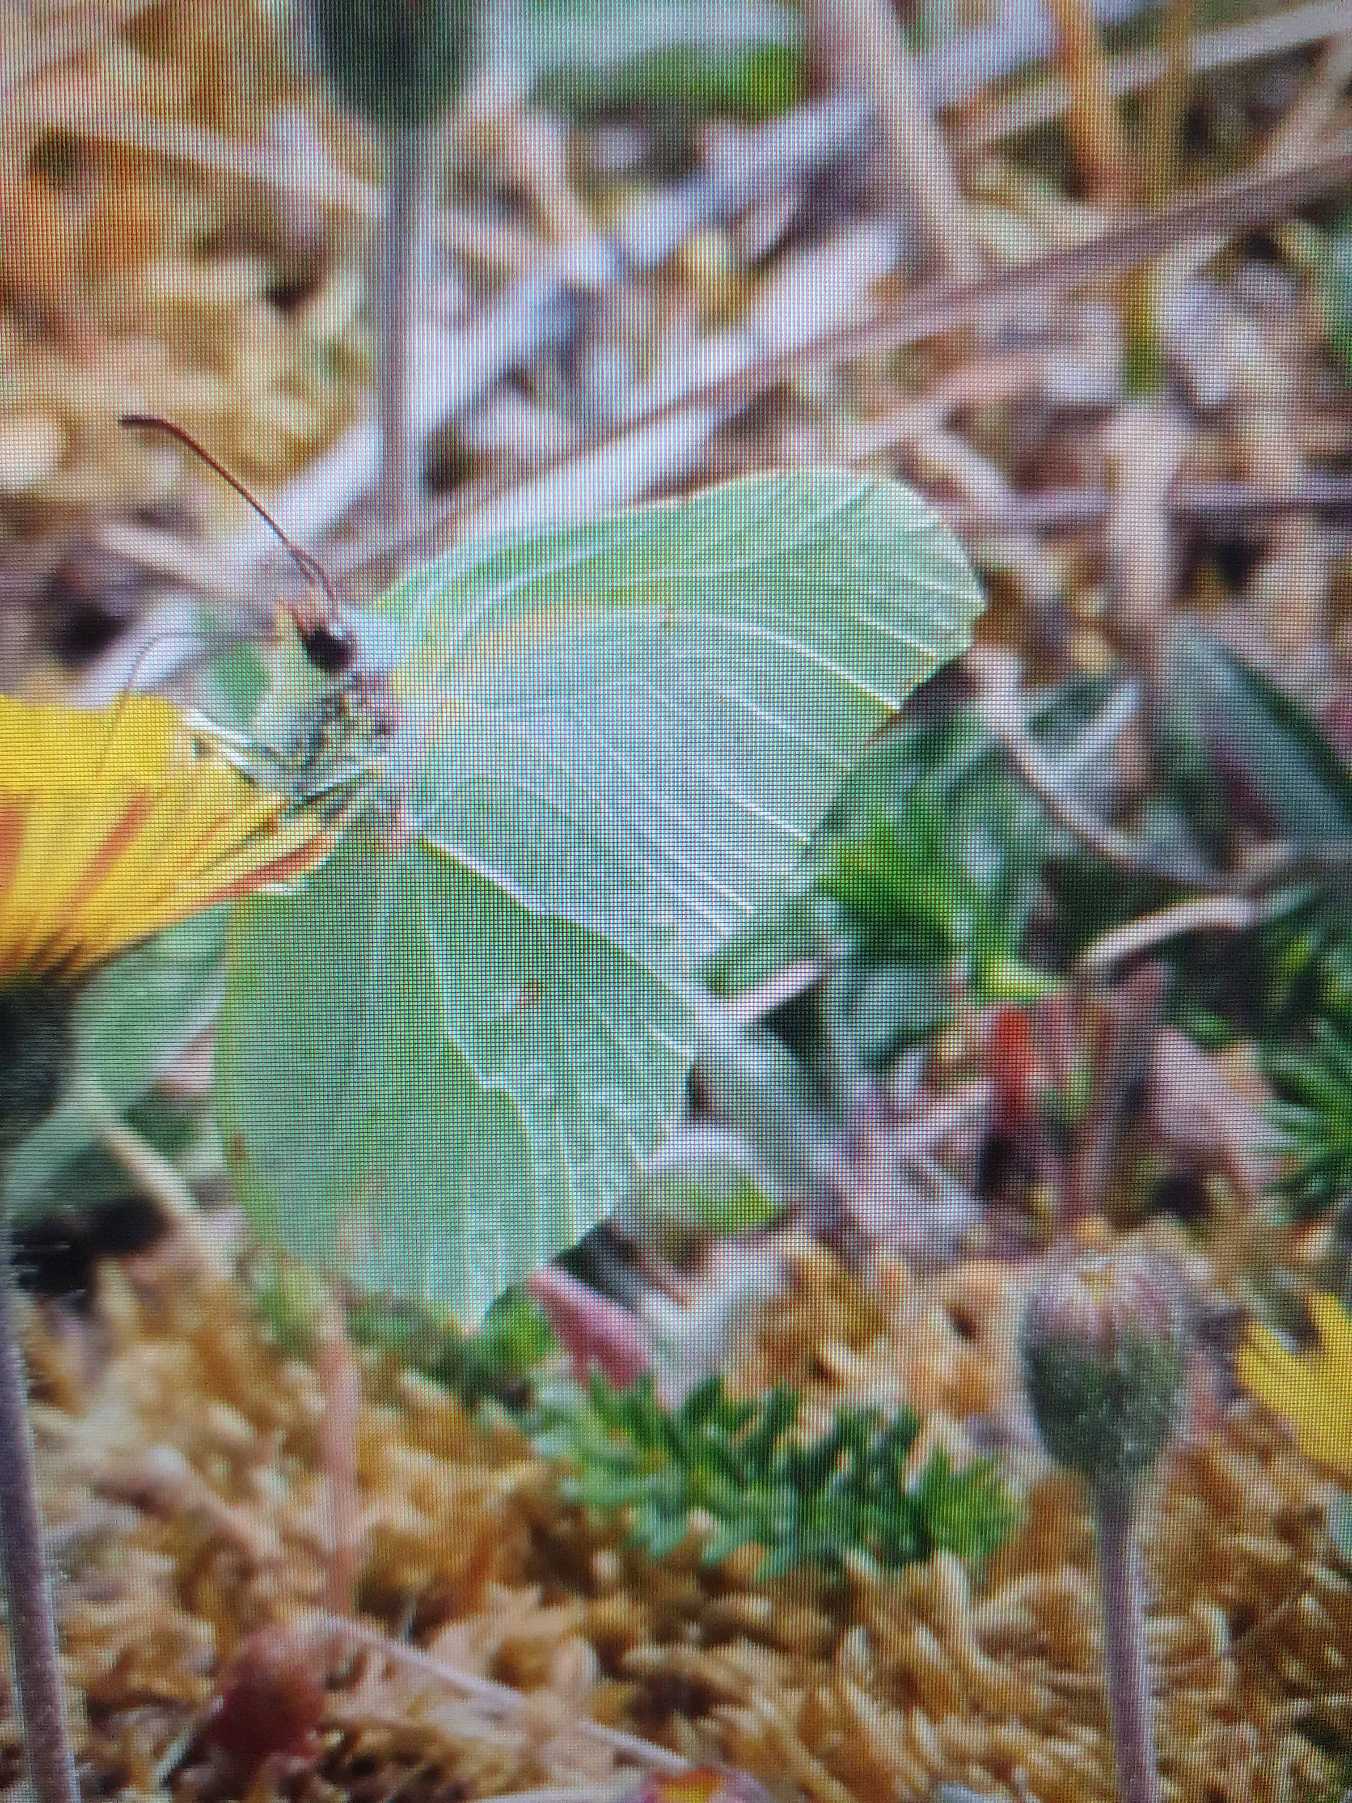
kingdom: Animalia
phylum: Arthropoda
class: Insecta
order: Lepidoptera
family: Pieridae
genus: Gonepteryx
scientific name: Gonepteryx rhamni
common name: Citronsommerfugl
